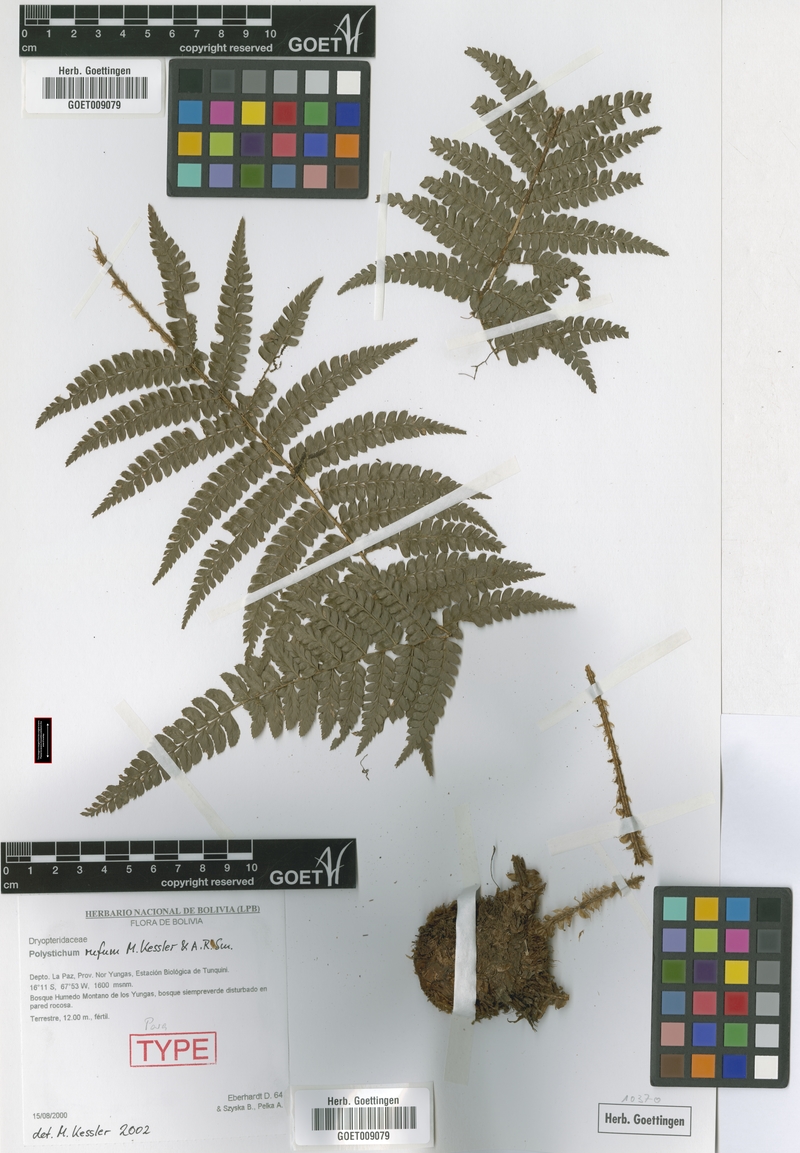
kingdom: Plantae
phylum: Tracheophyta
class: Polypodiopsida
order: Polypodiales
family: Dryopteridaceae
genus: Polystichum
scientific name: Polystichum rufum
